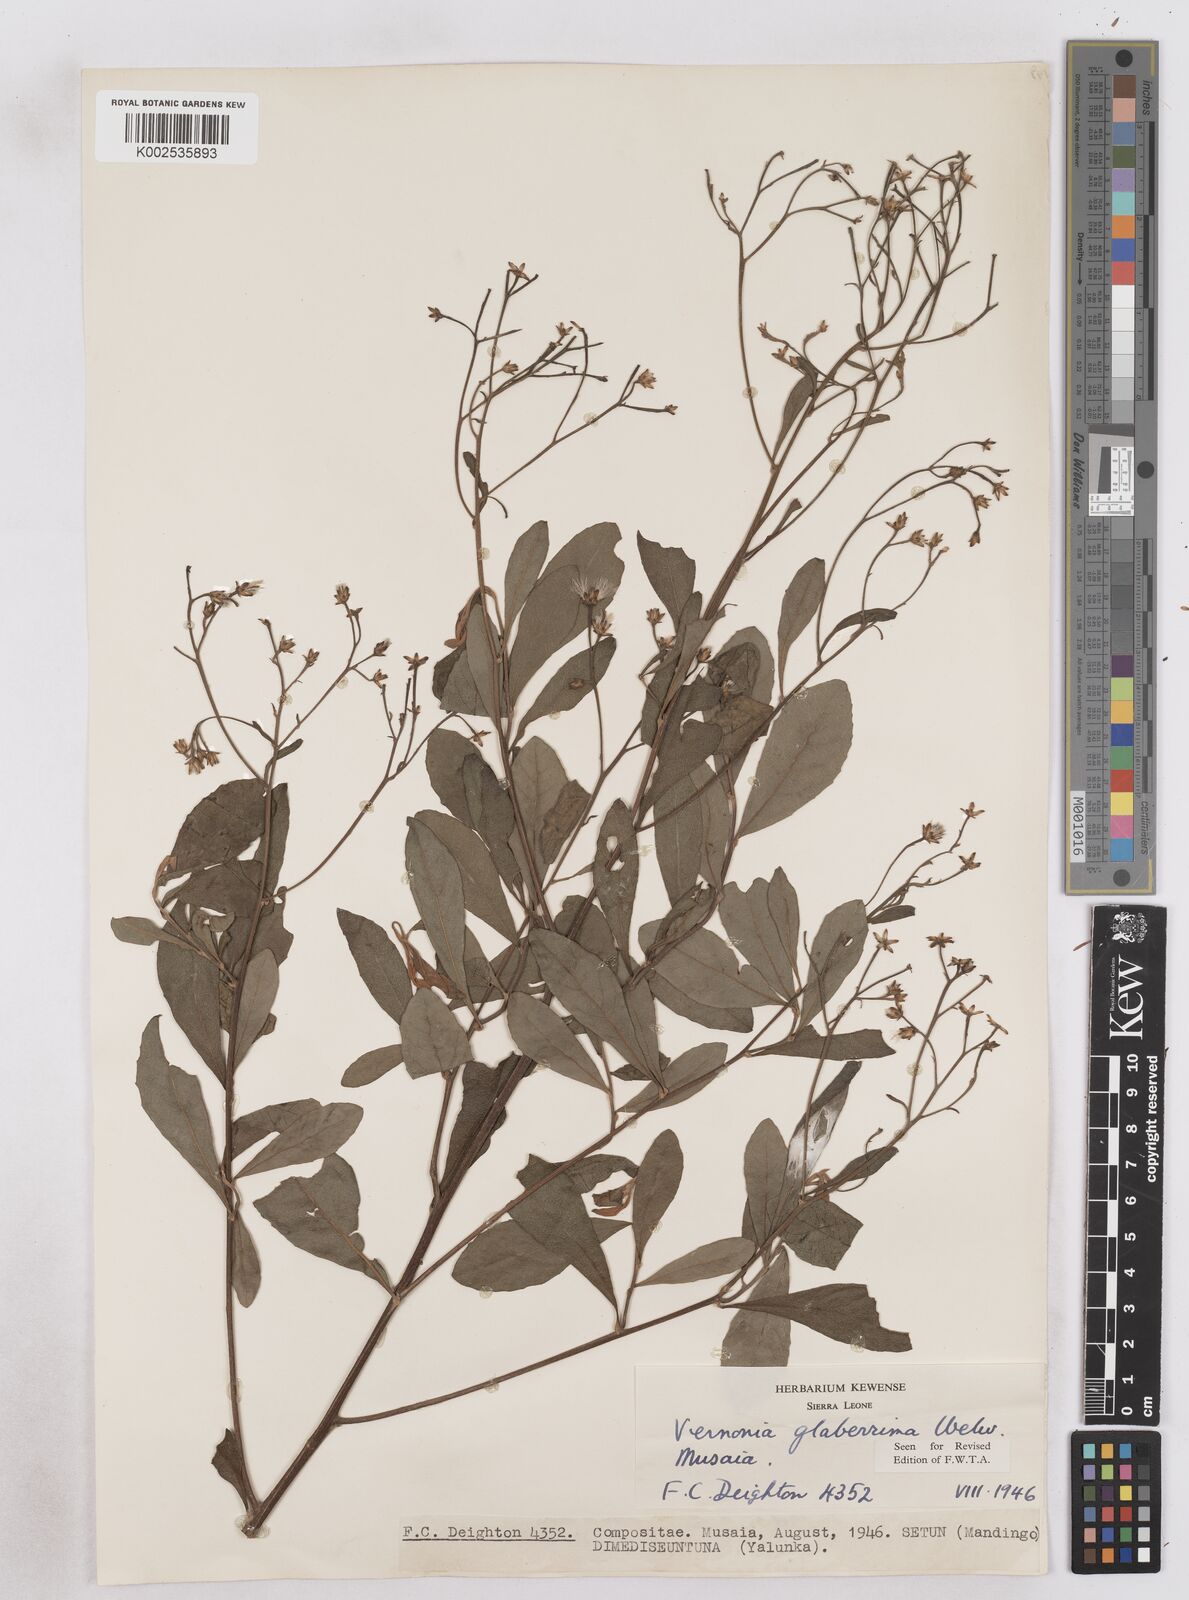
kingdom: Plantae
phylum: Tracheophyta
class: Magnoliopsida
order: Asterales
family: Asteraceae
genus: Gymnanthemum
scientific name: Gymnanthemum glaberrimum
